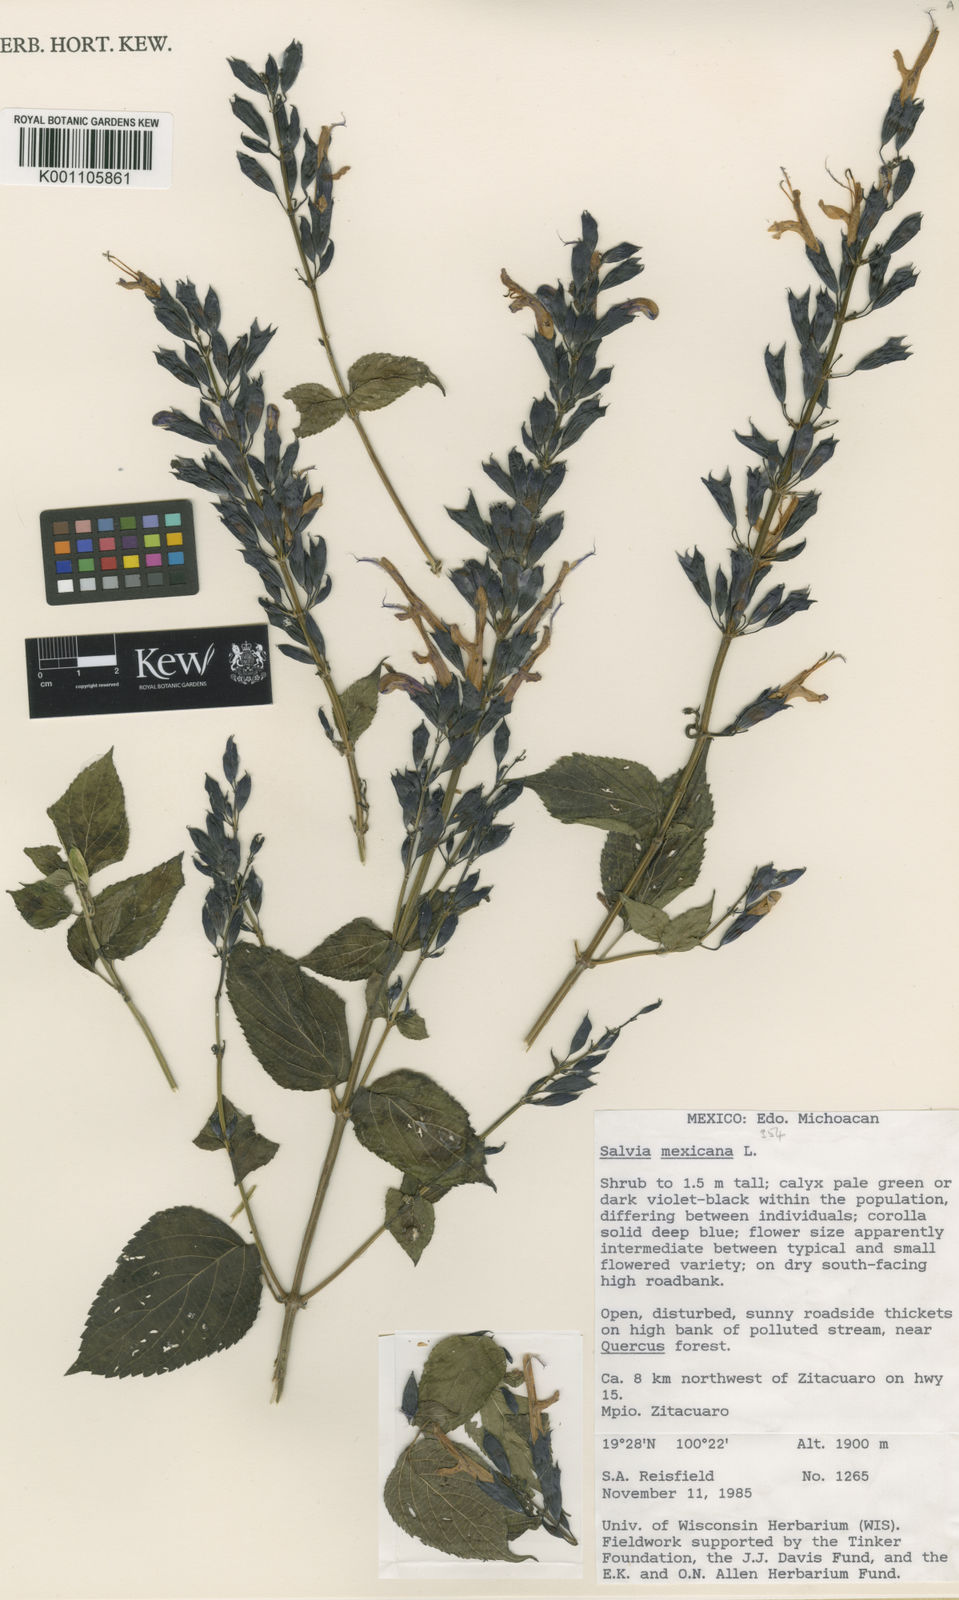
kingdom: Plantae
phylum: Tracheophyta
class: Magnoliopsida
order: Lamiales
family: Lamiaceae
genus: Salvia
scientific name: Salvia discolor
